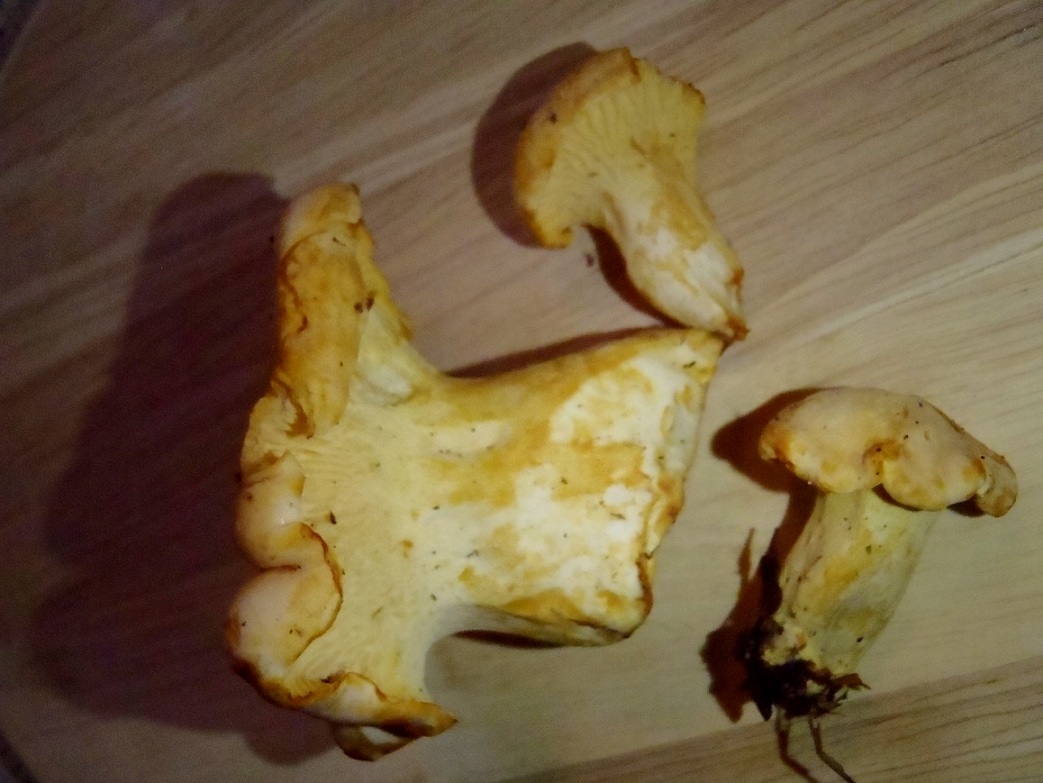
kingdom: Fungi
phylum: Basidiomycota
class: Agaricomycetes
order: Cantharellales
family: Hydnaceae
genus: Cantharellus
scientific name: Cantharellus pallens
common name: bleg kantarel
